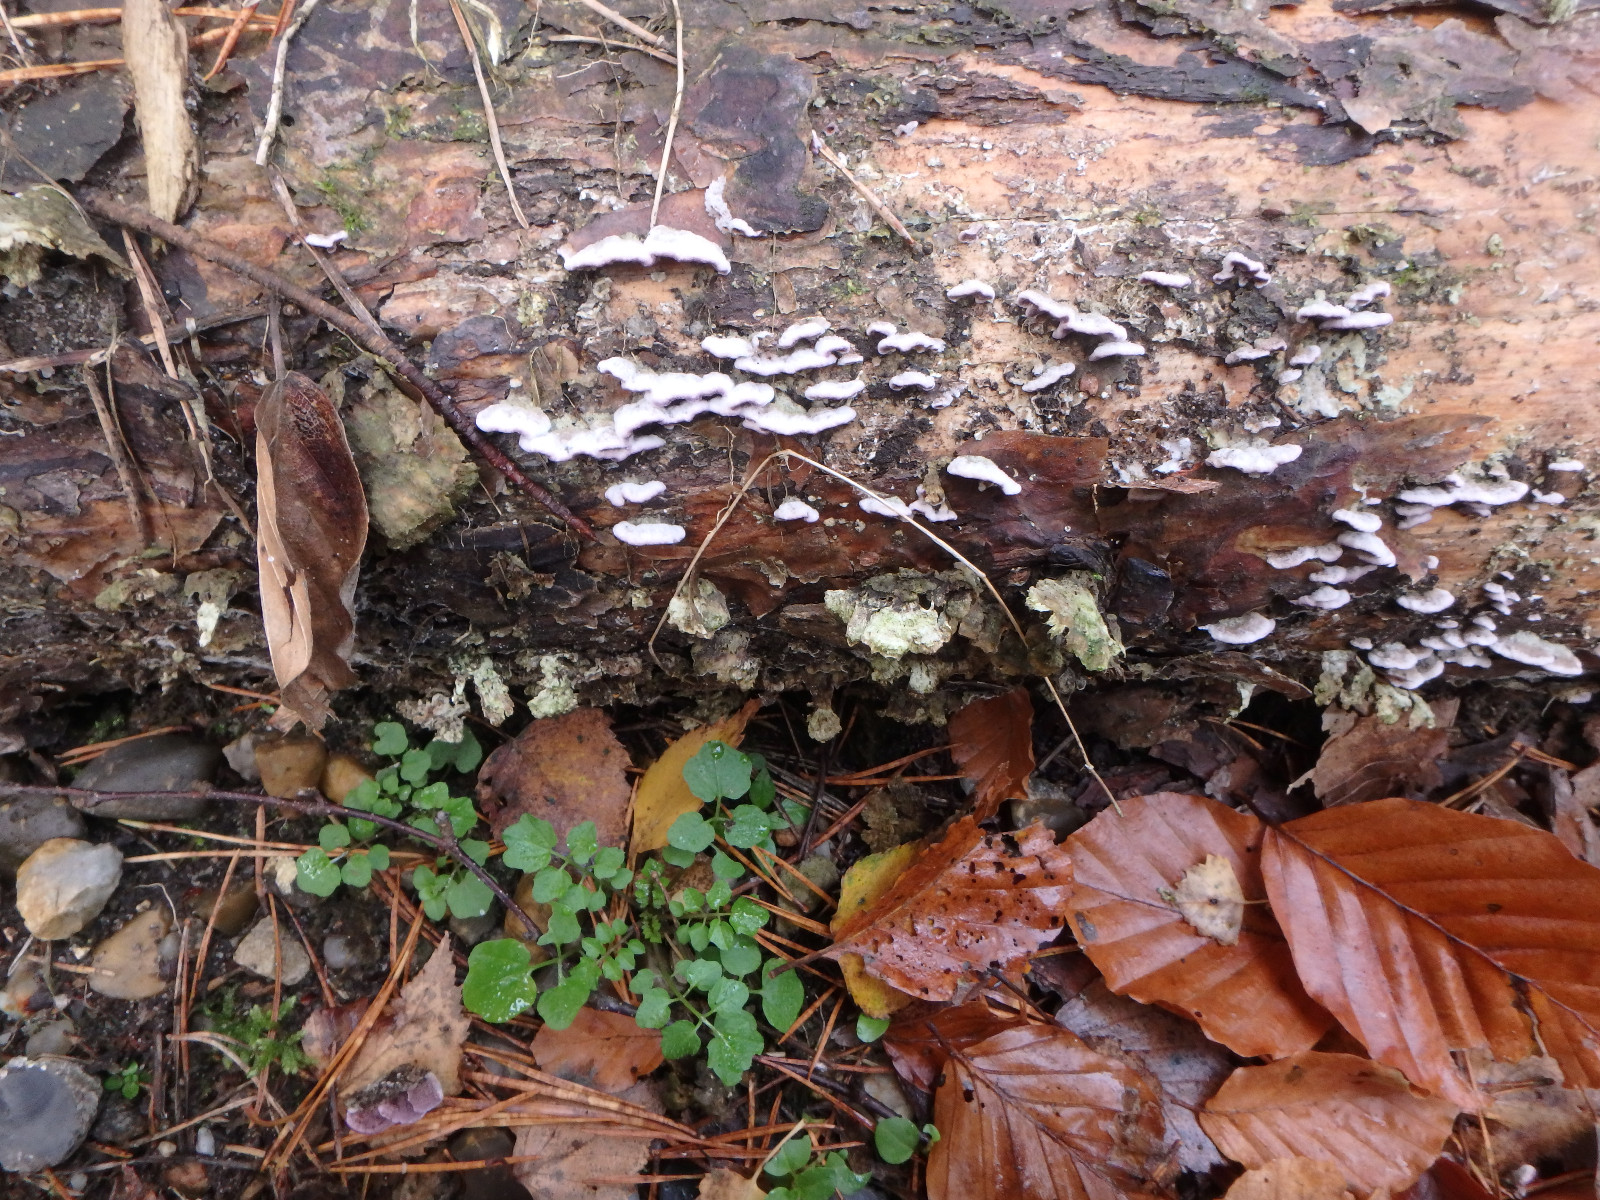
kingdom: Fungi
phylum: Basidiomycota
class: Agaricomycetes
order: Hymenochaetales
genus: Trichaptum
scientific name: Trichaptum abietinum
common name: almindelig violporesvamp
